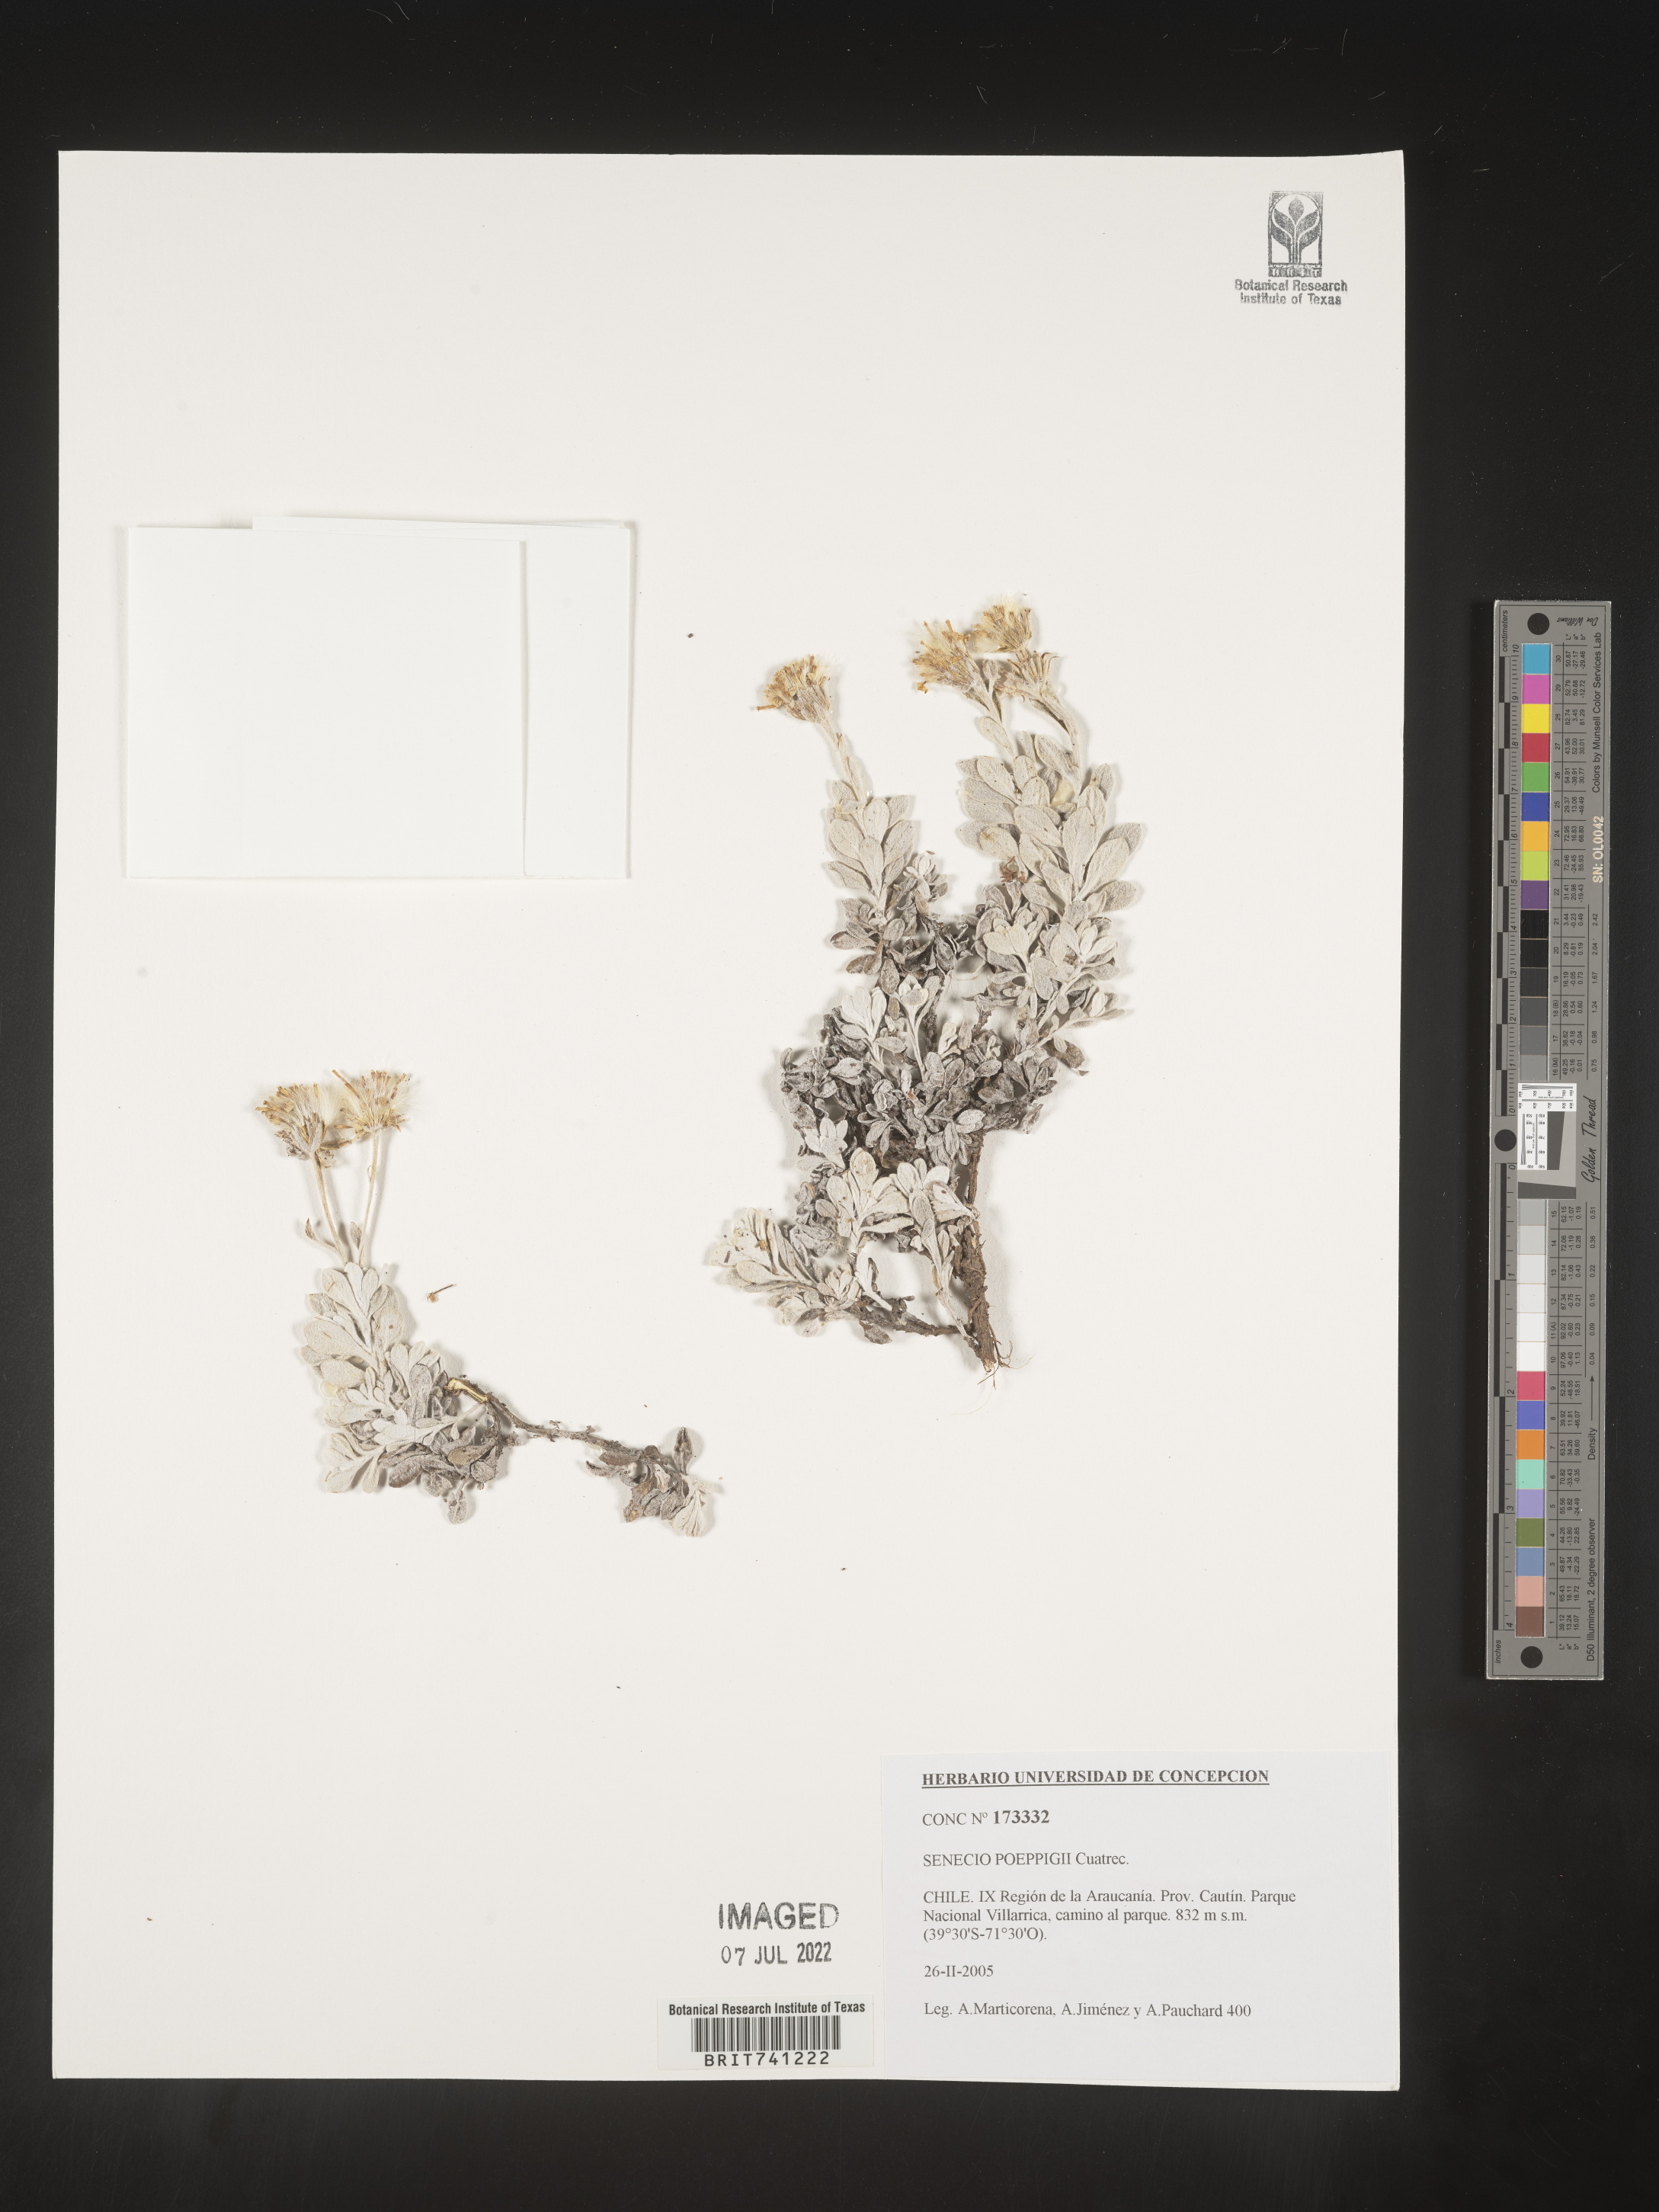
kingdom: Plantae
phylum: Tracheophyta
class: Magnoliopsida
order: Asterales
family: Asteraceae
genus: Senecio
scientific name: Senecio
